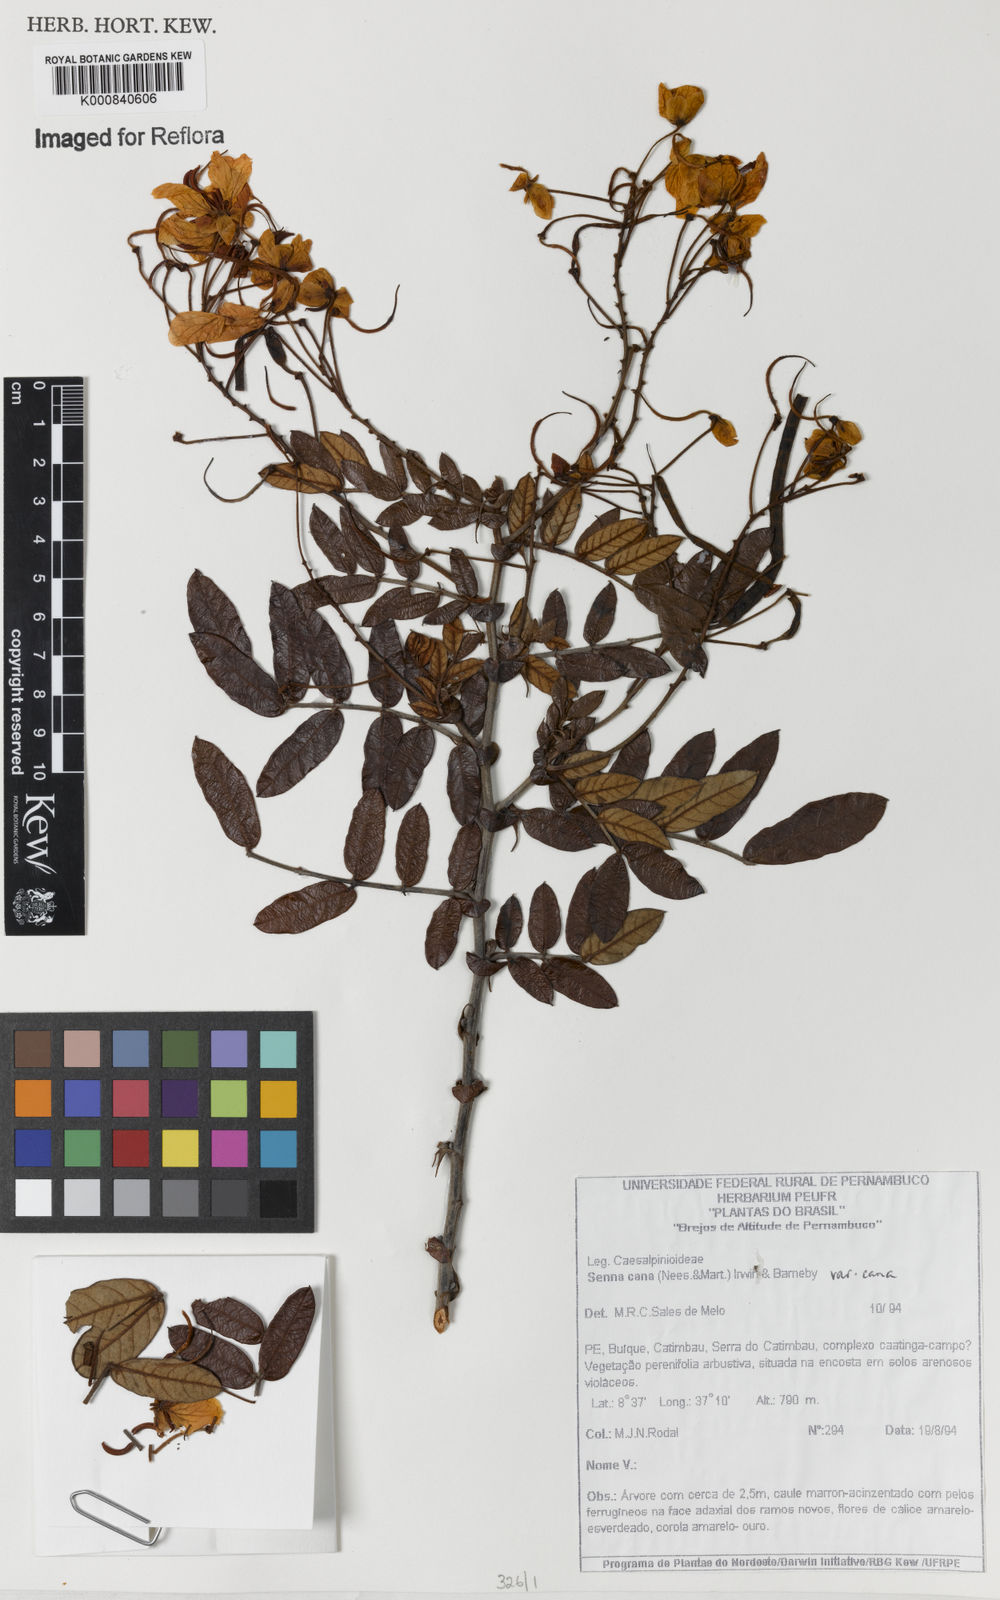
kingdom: Plantae
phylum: Tracheophyta
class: Magnoliopsida
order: Fabales
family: Fabaceae
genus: Senna
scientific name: Senna cana
